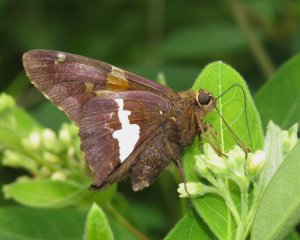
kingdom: Animalia
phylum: Arthropoda
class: Insecta
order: Lepidoptera
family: Hesperiidae
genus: Epargyreus
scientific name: Epargyreus clarus
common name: Silver-spotted Skipper
